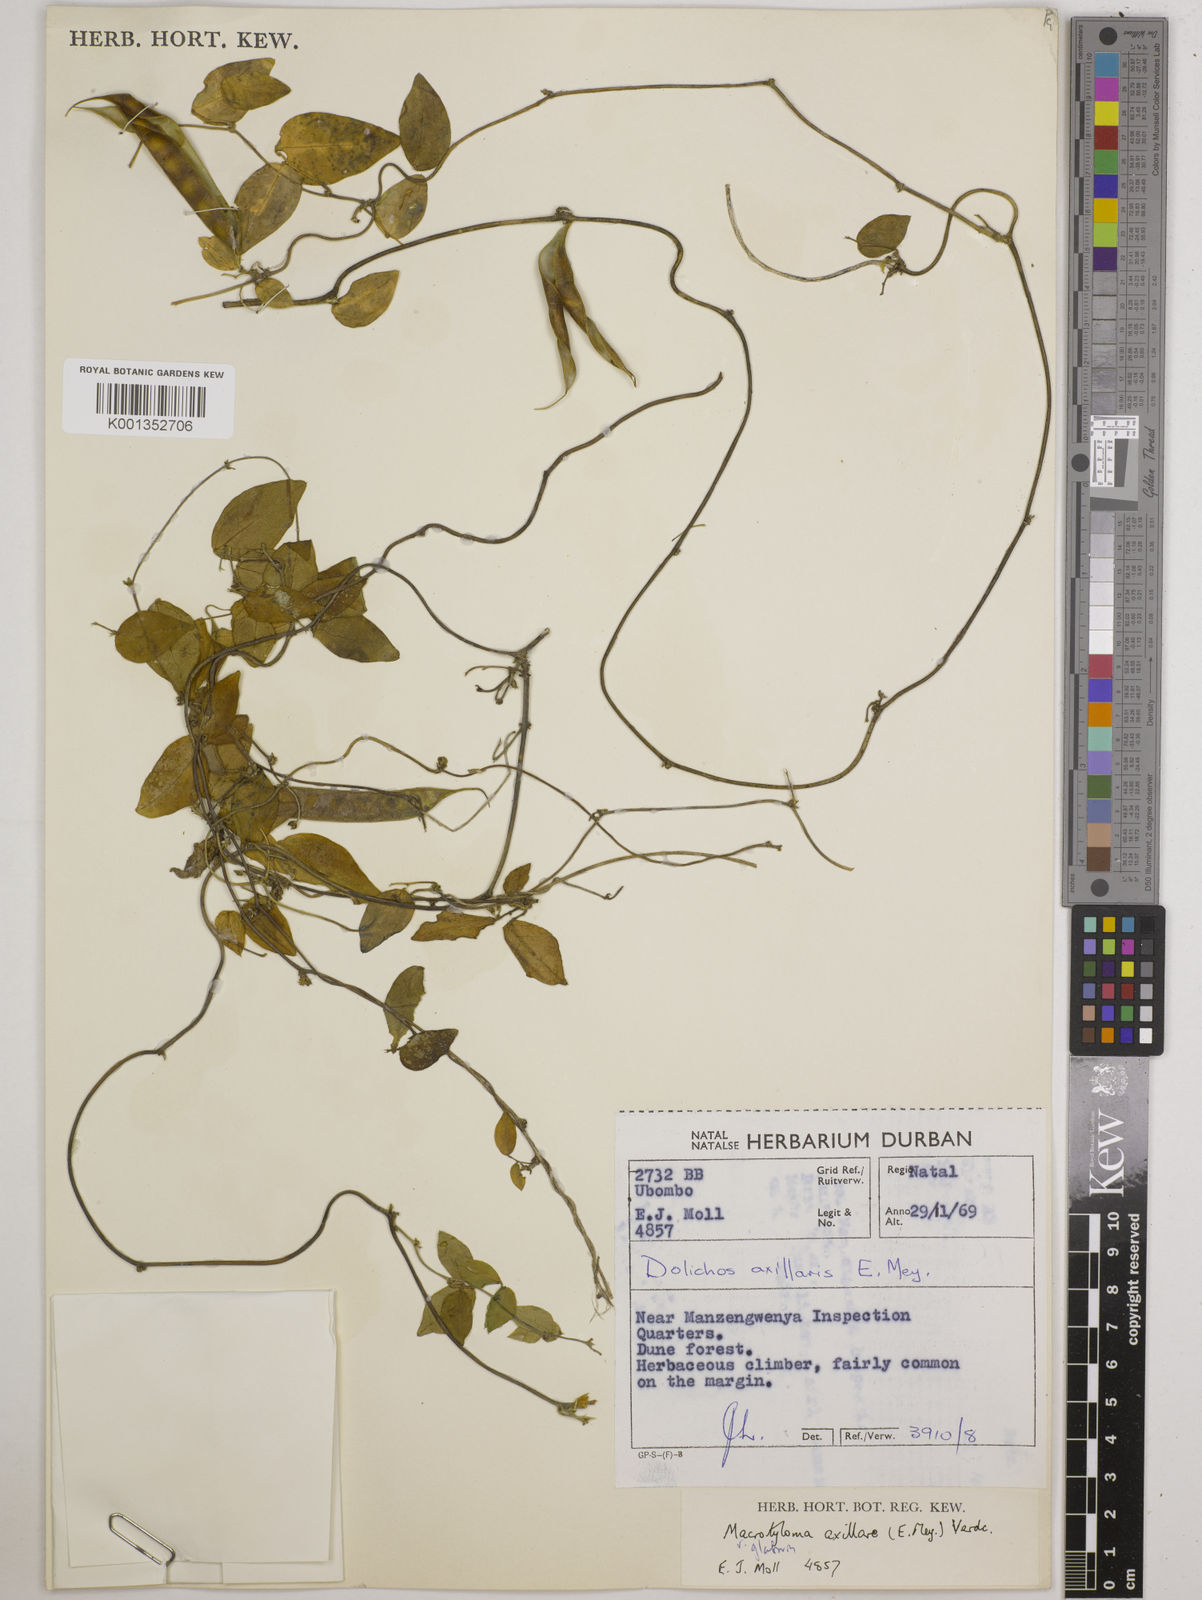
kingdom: Plantae
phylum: Tracheophyta
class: Magnoliopsida
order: Fabales
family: Fabaceae
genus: Macrotyloma
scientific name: Macrotyloma
